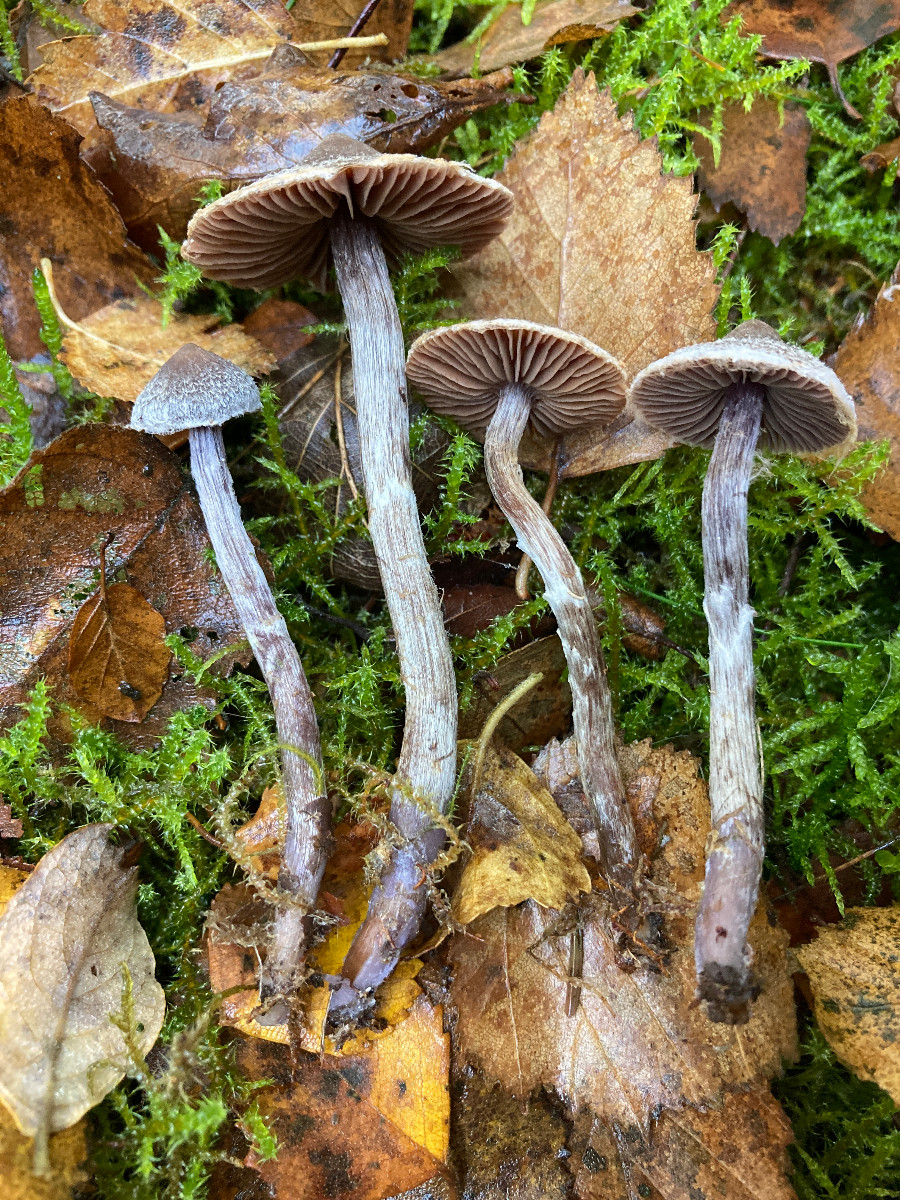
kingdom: Fungi
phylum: Basidiomycota
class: Agaricomycetes
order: Agaricales
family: Cortinariaceae
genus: Cortinarius
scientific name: Cortinarius flexipes
